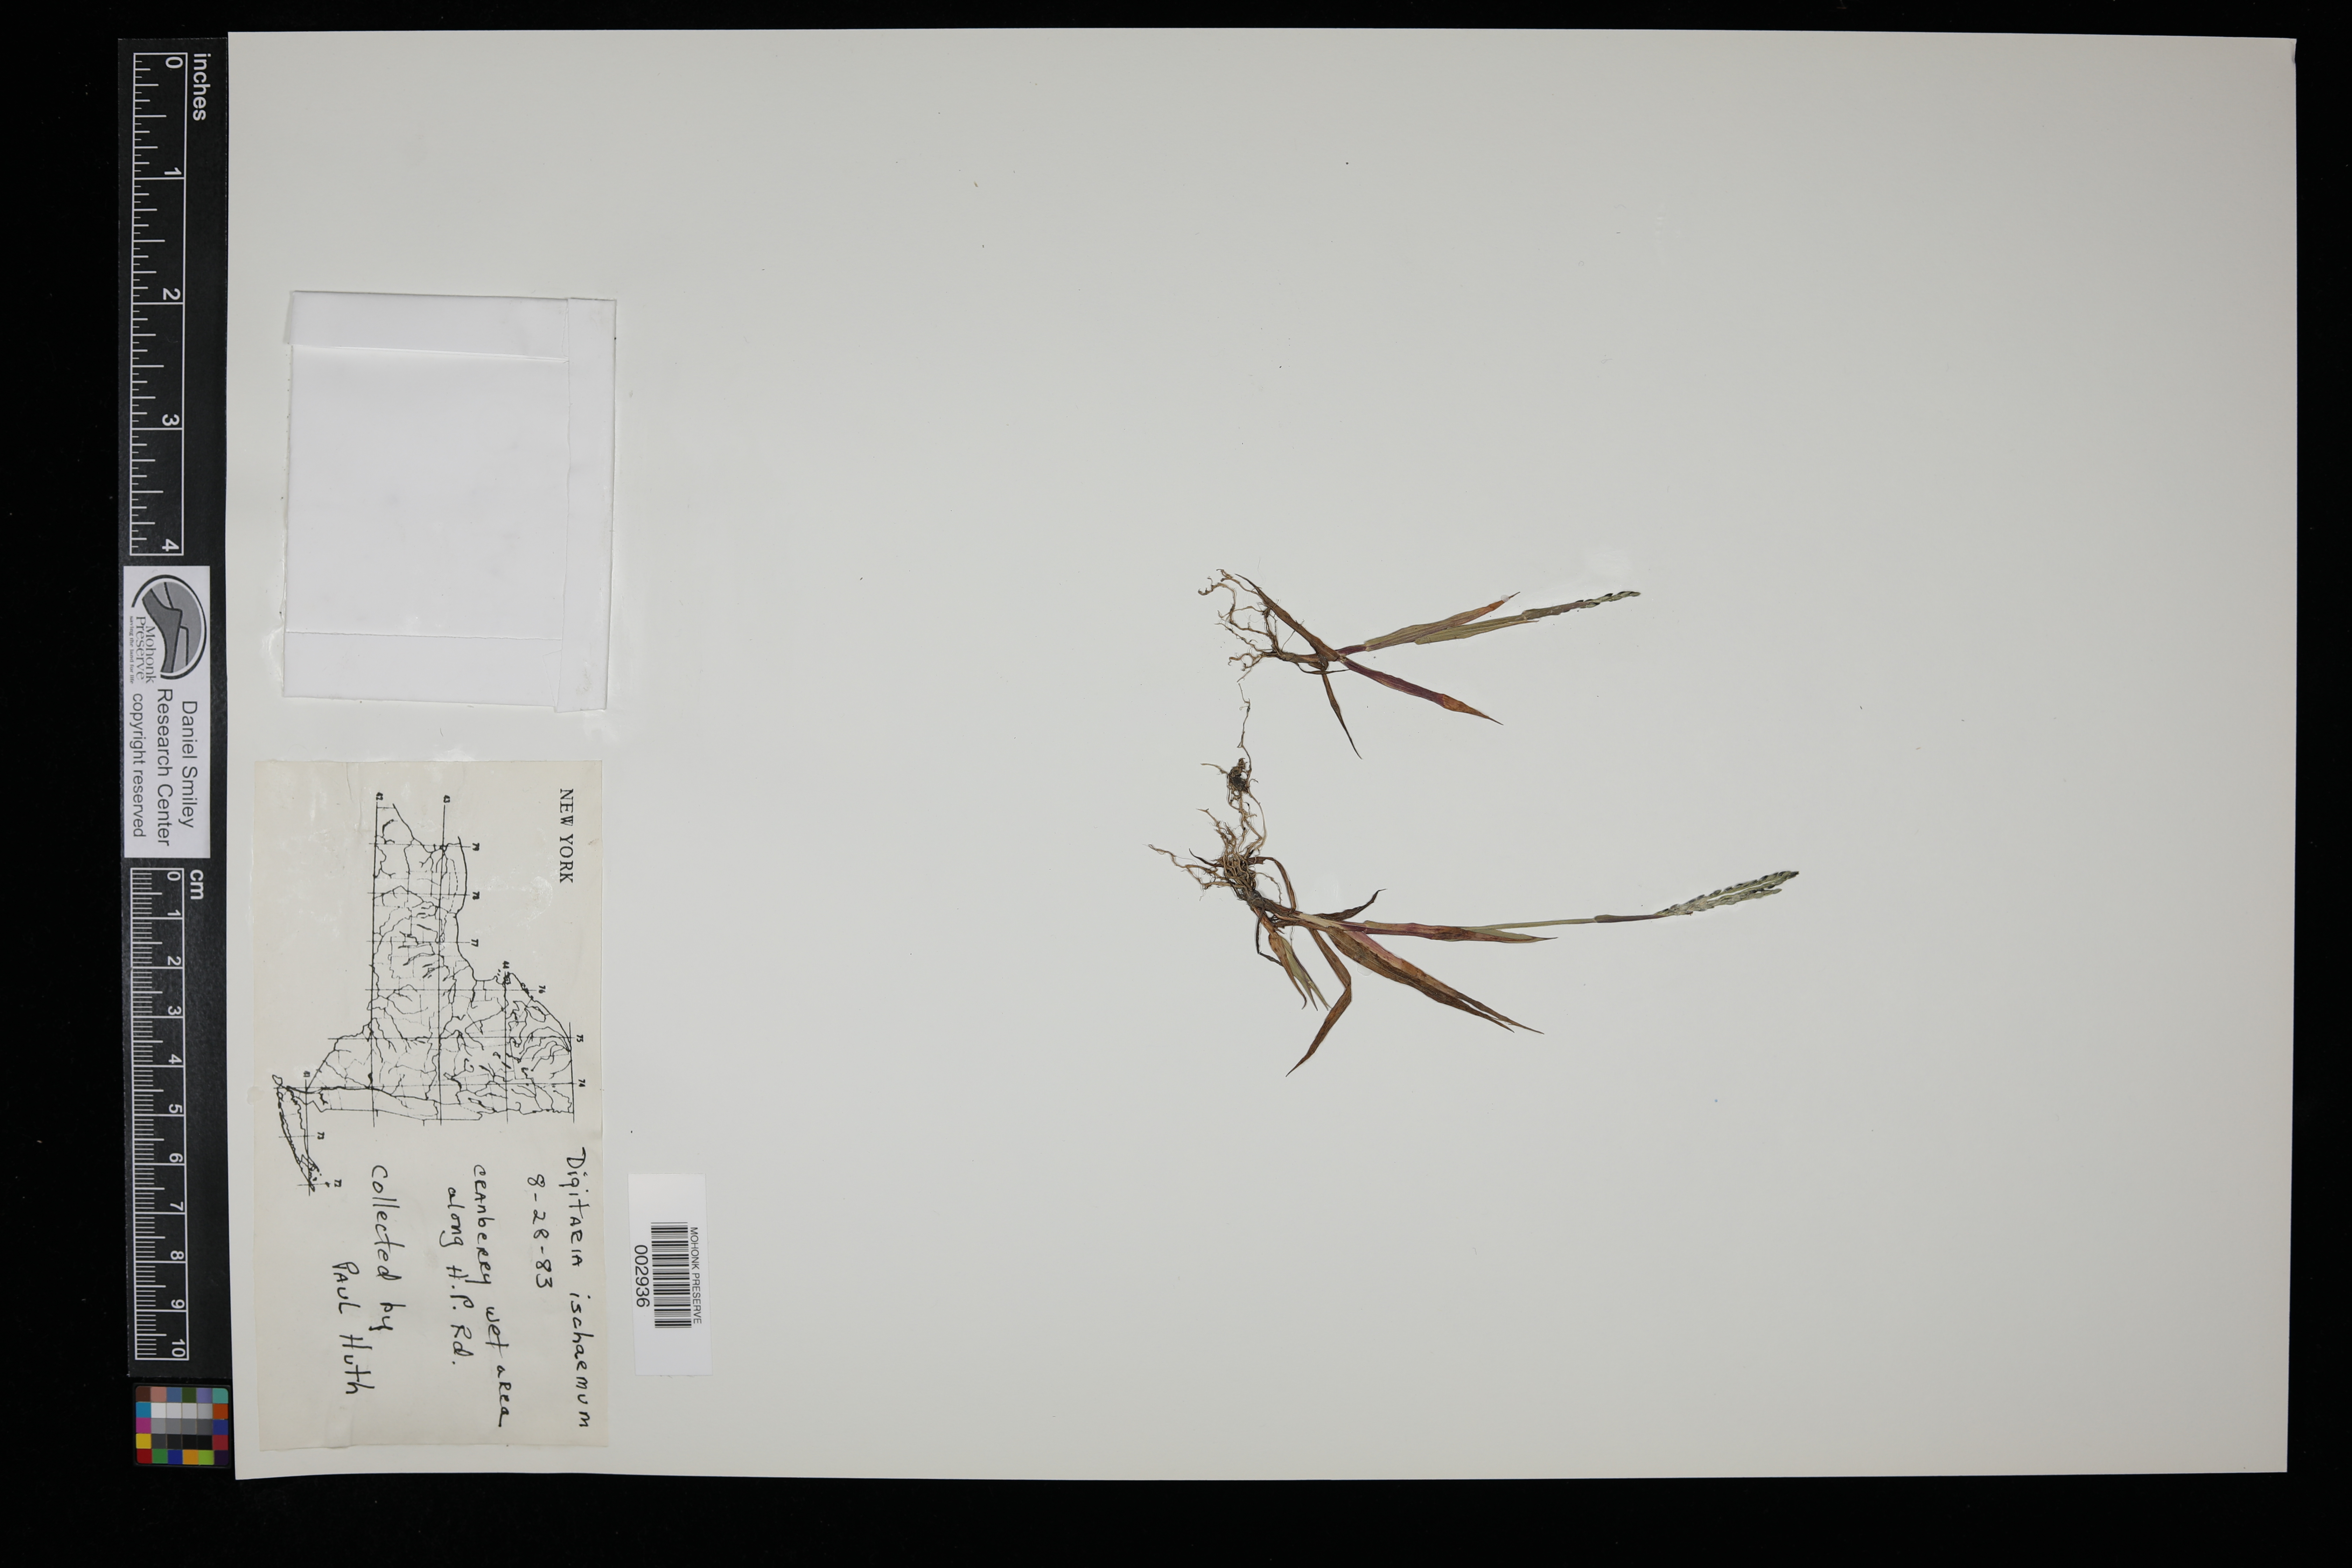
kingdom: Plantae
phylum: Tracheophyta
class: Liliopsida
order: Poales
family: Poaceae
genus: Digitaria
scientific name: Digitaria ischaemum
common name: Smooth crabgrass
